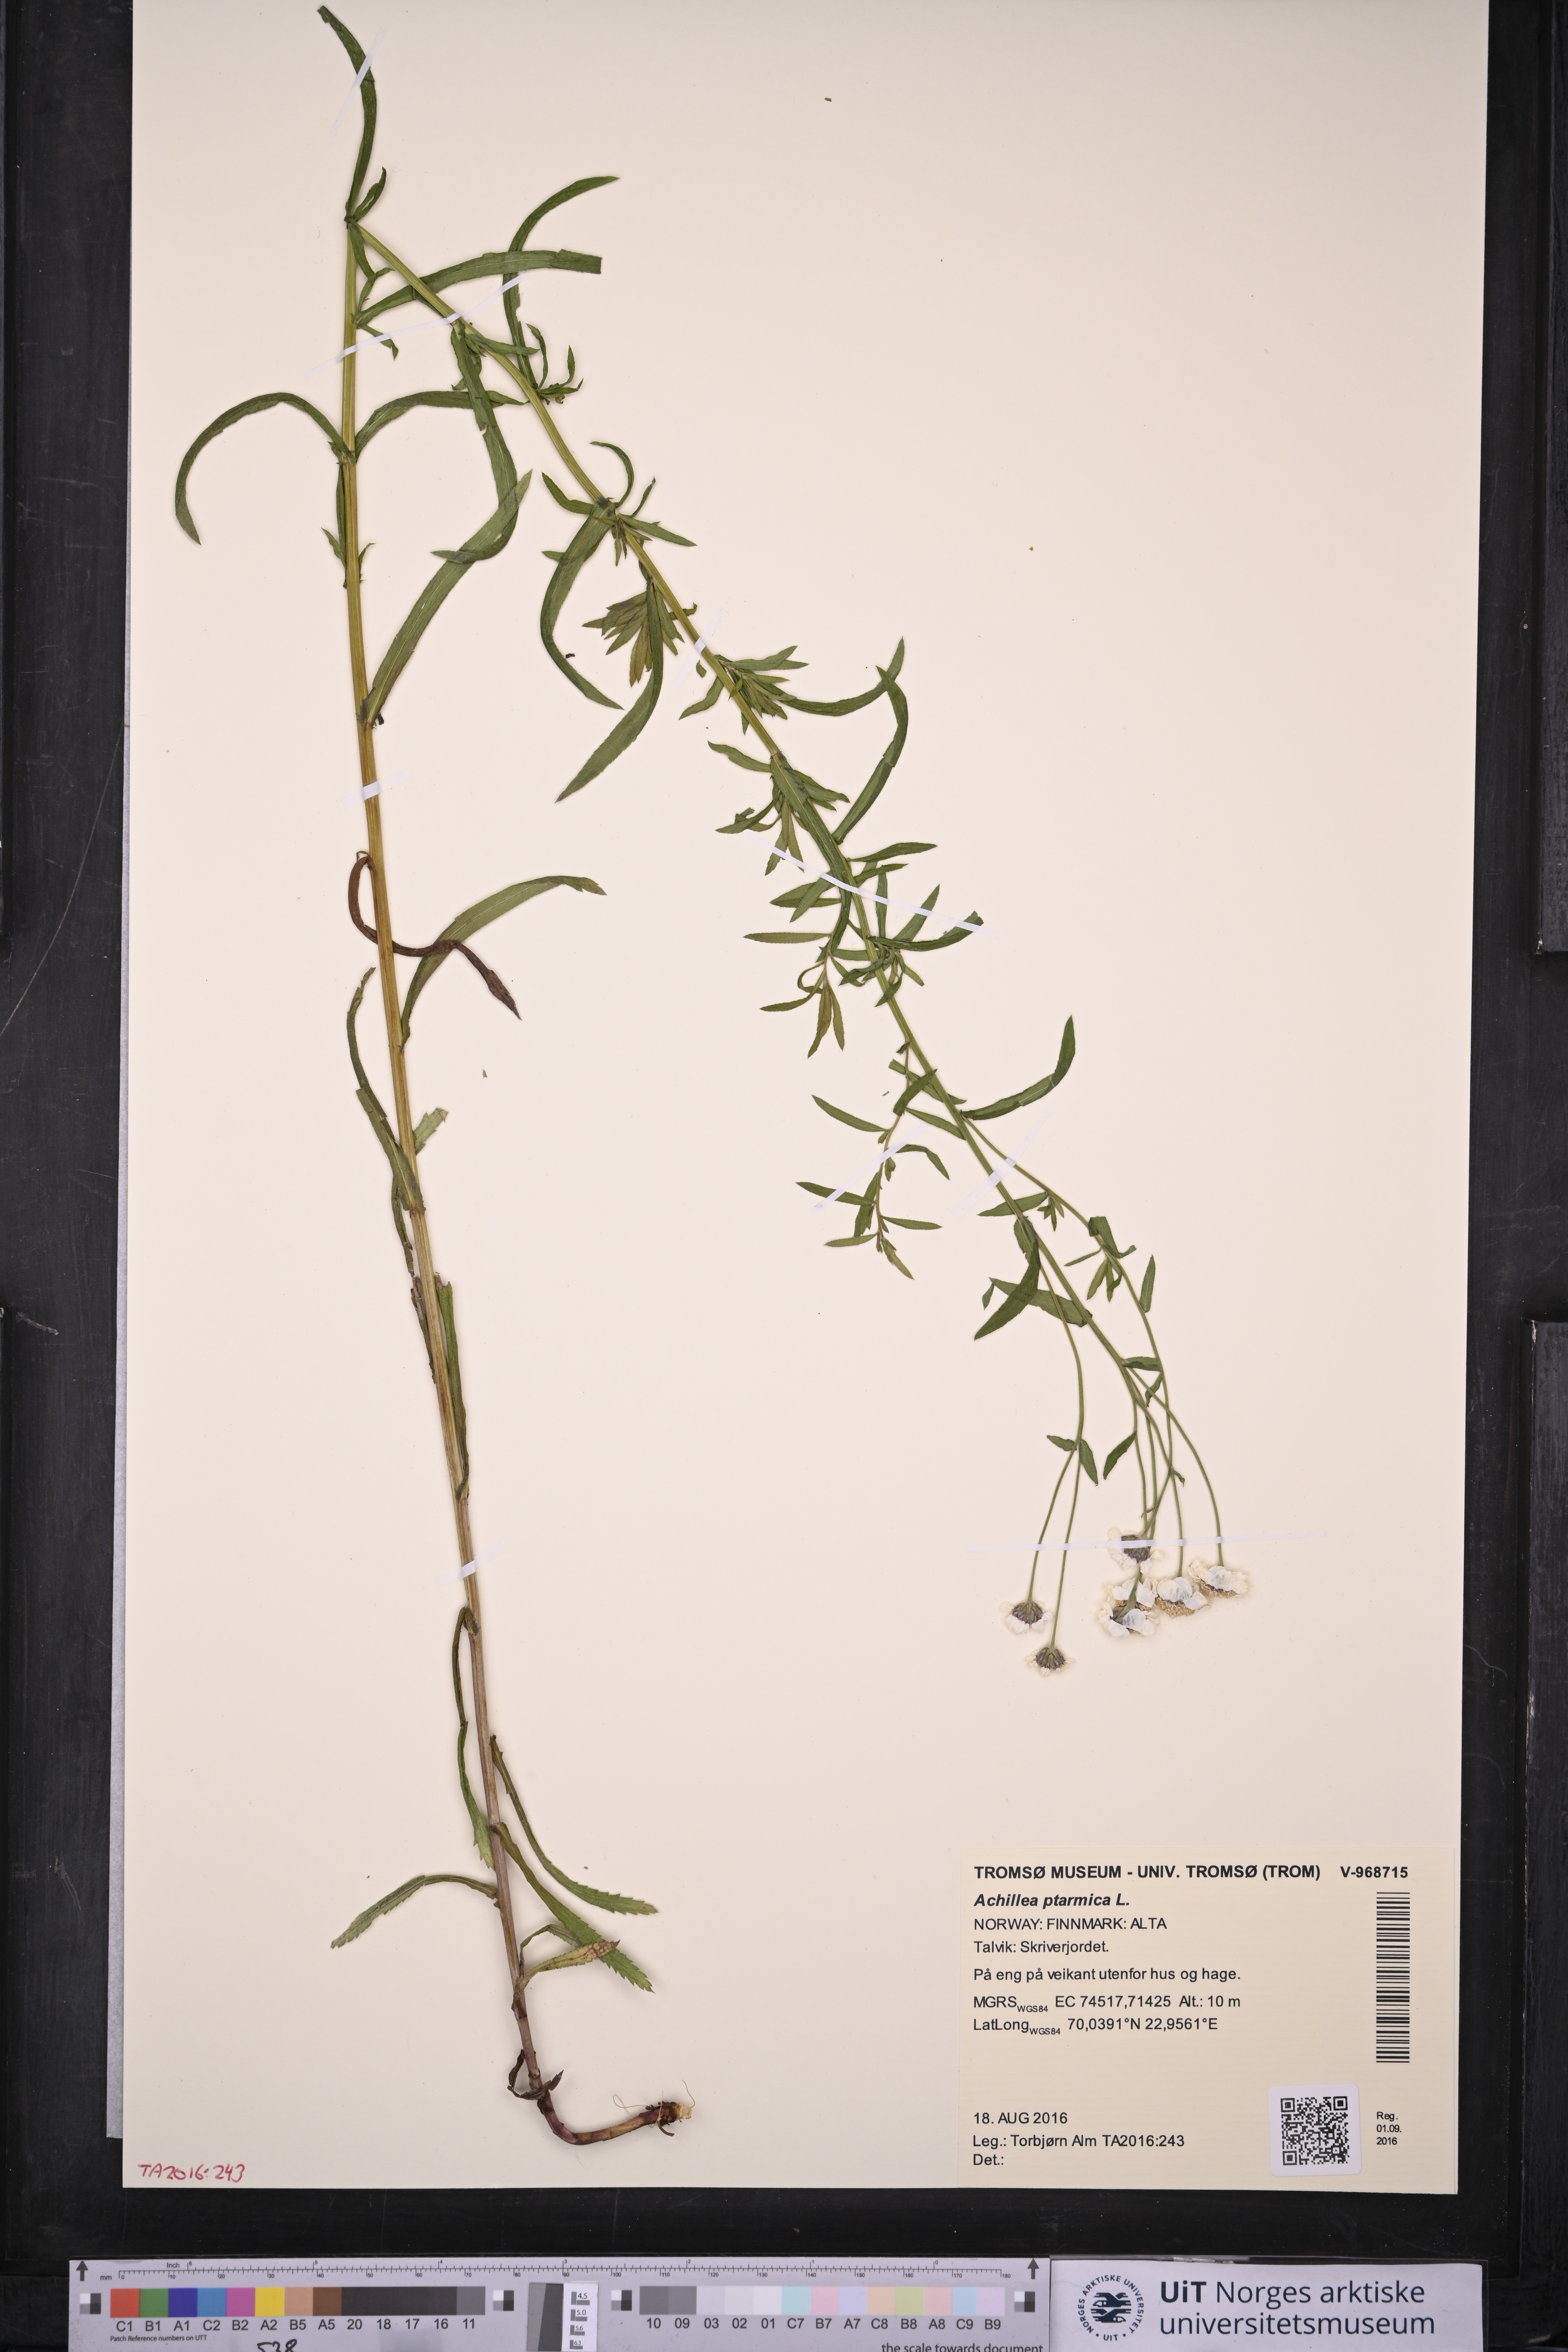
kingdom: Plantae
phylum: Tracheophyta
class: Magnoliopsida
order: Asterales
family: Asteraceae
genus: Achillea
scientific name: Achillea ptarmica
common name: Sneezeweed
